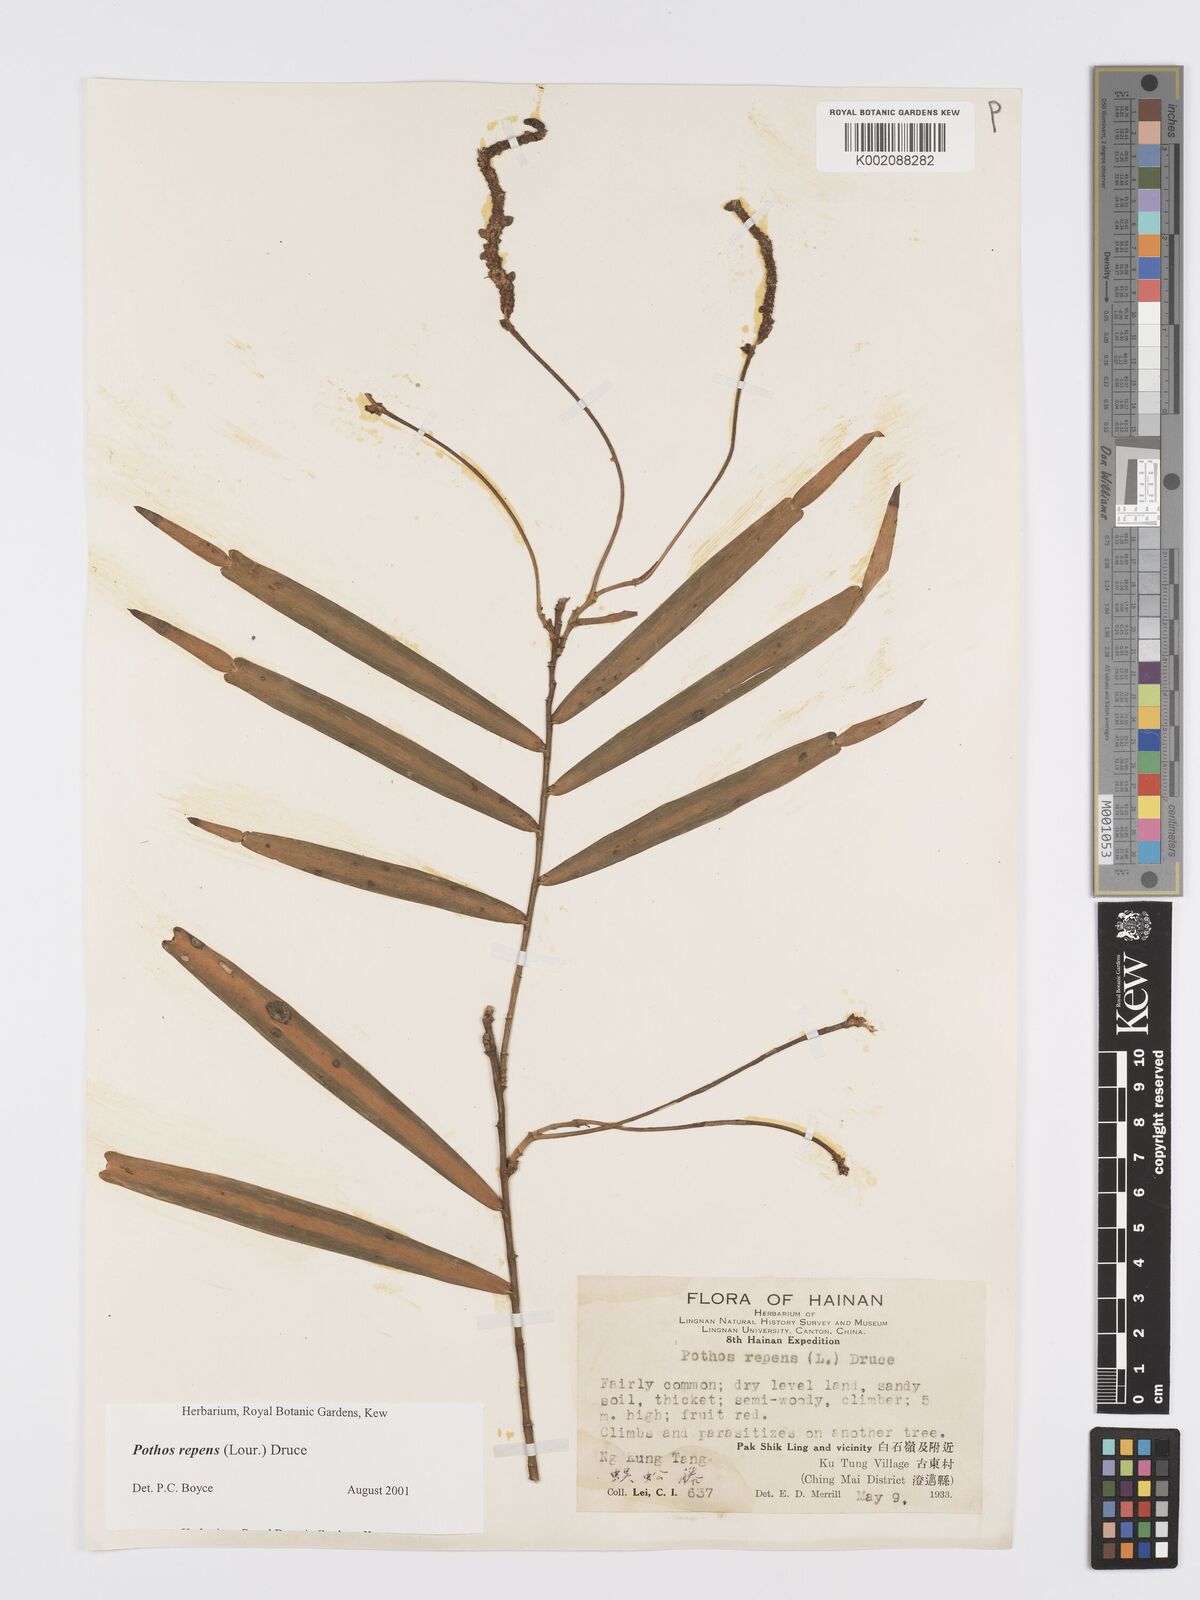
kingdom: Plantae
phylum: Tracheophyta
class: Liliopsida
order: Alismatales
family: Araceae
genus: Pothos
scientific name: Pothos repens
